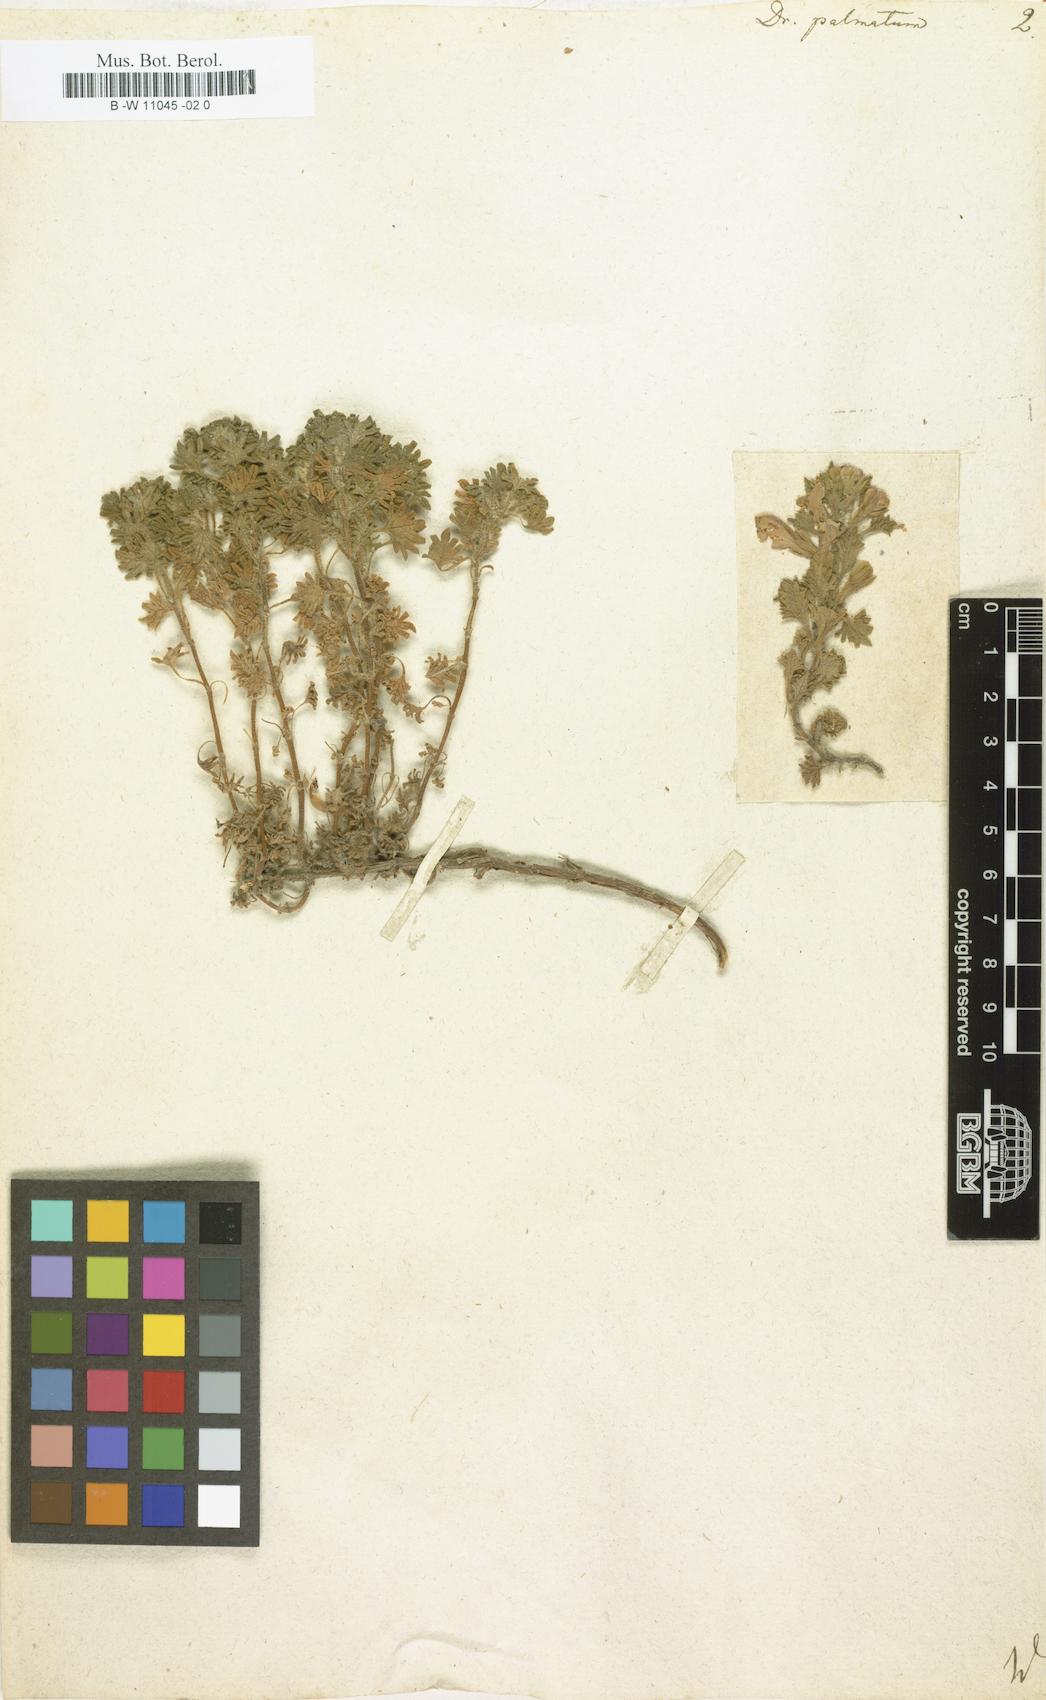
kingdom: Plantae
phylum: Tracheophyta
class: Magnoliopsida
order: Lamiales
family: Lamiaceae
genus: Dracocephalum
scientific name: Dracocephalum palmatum
